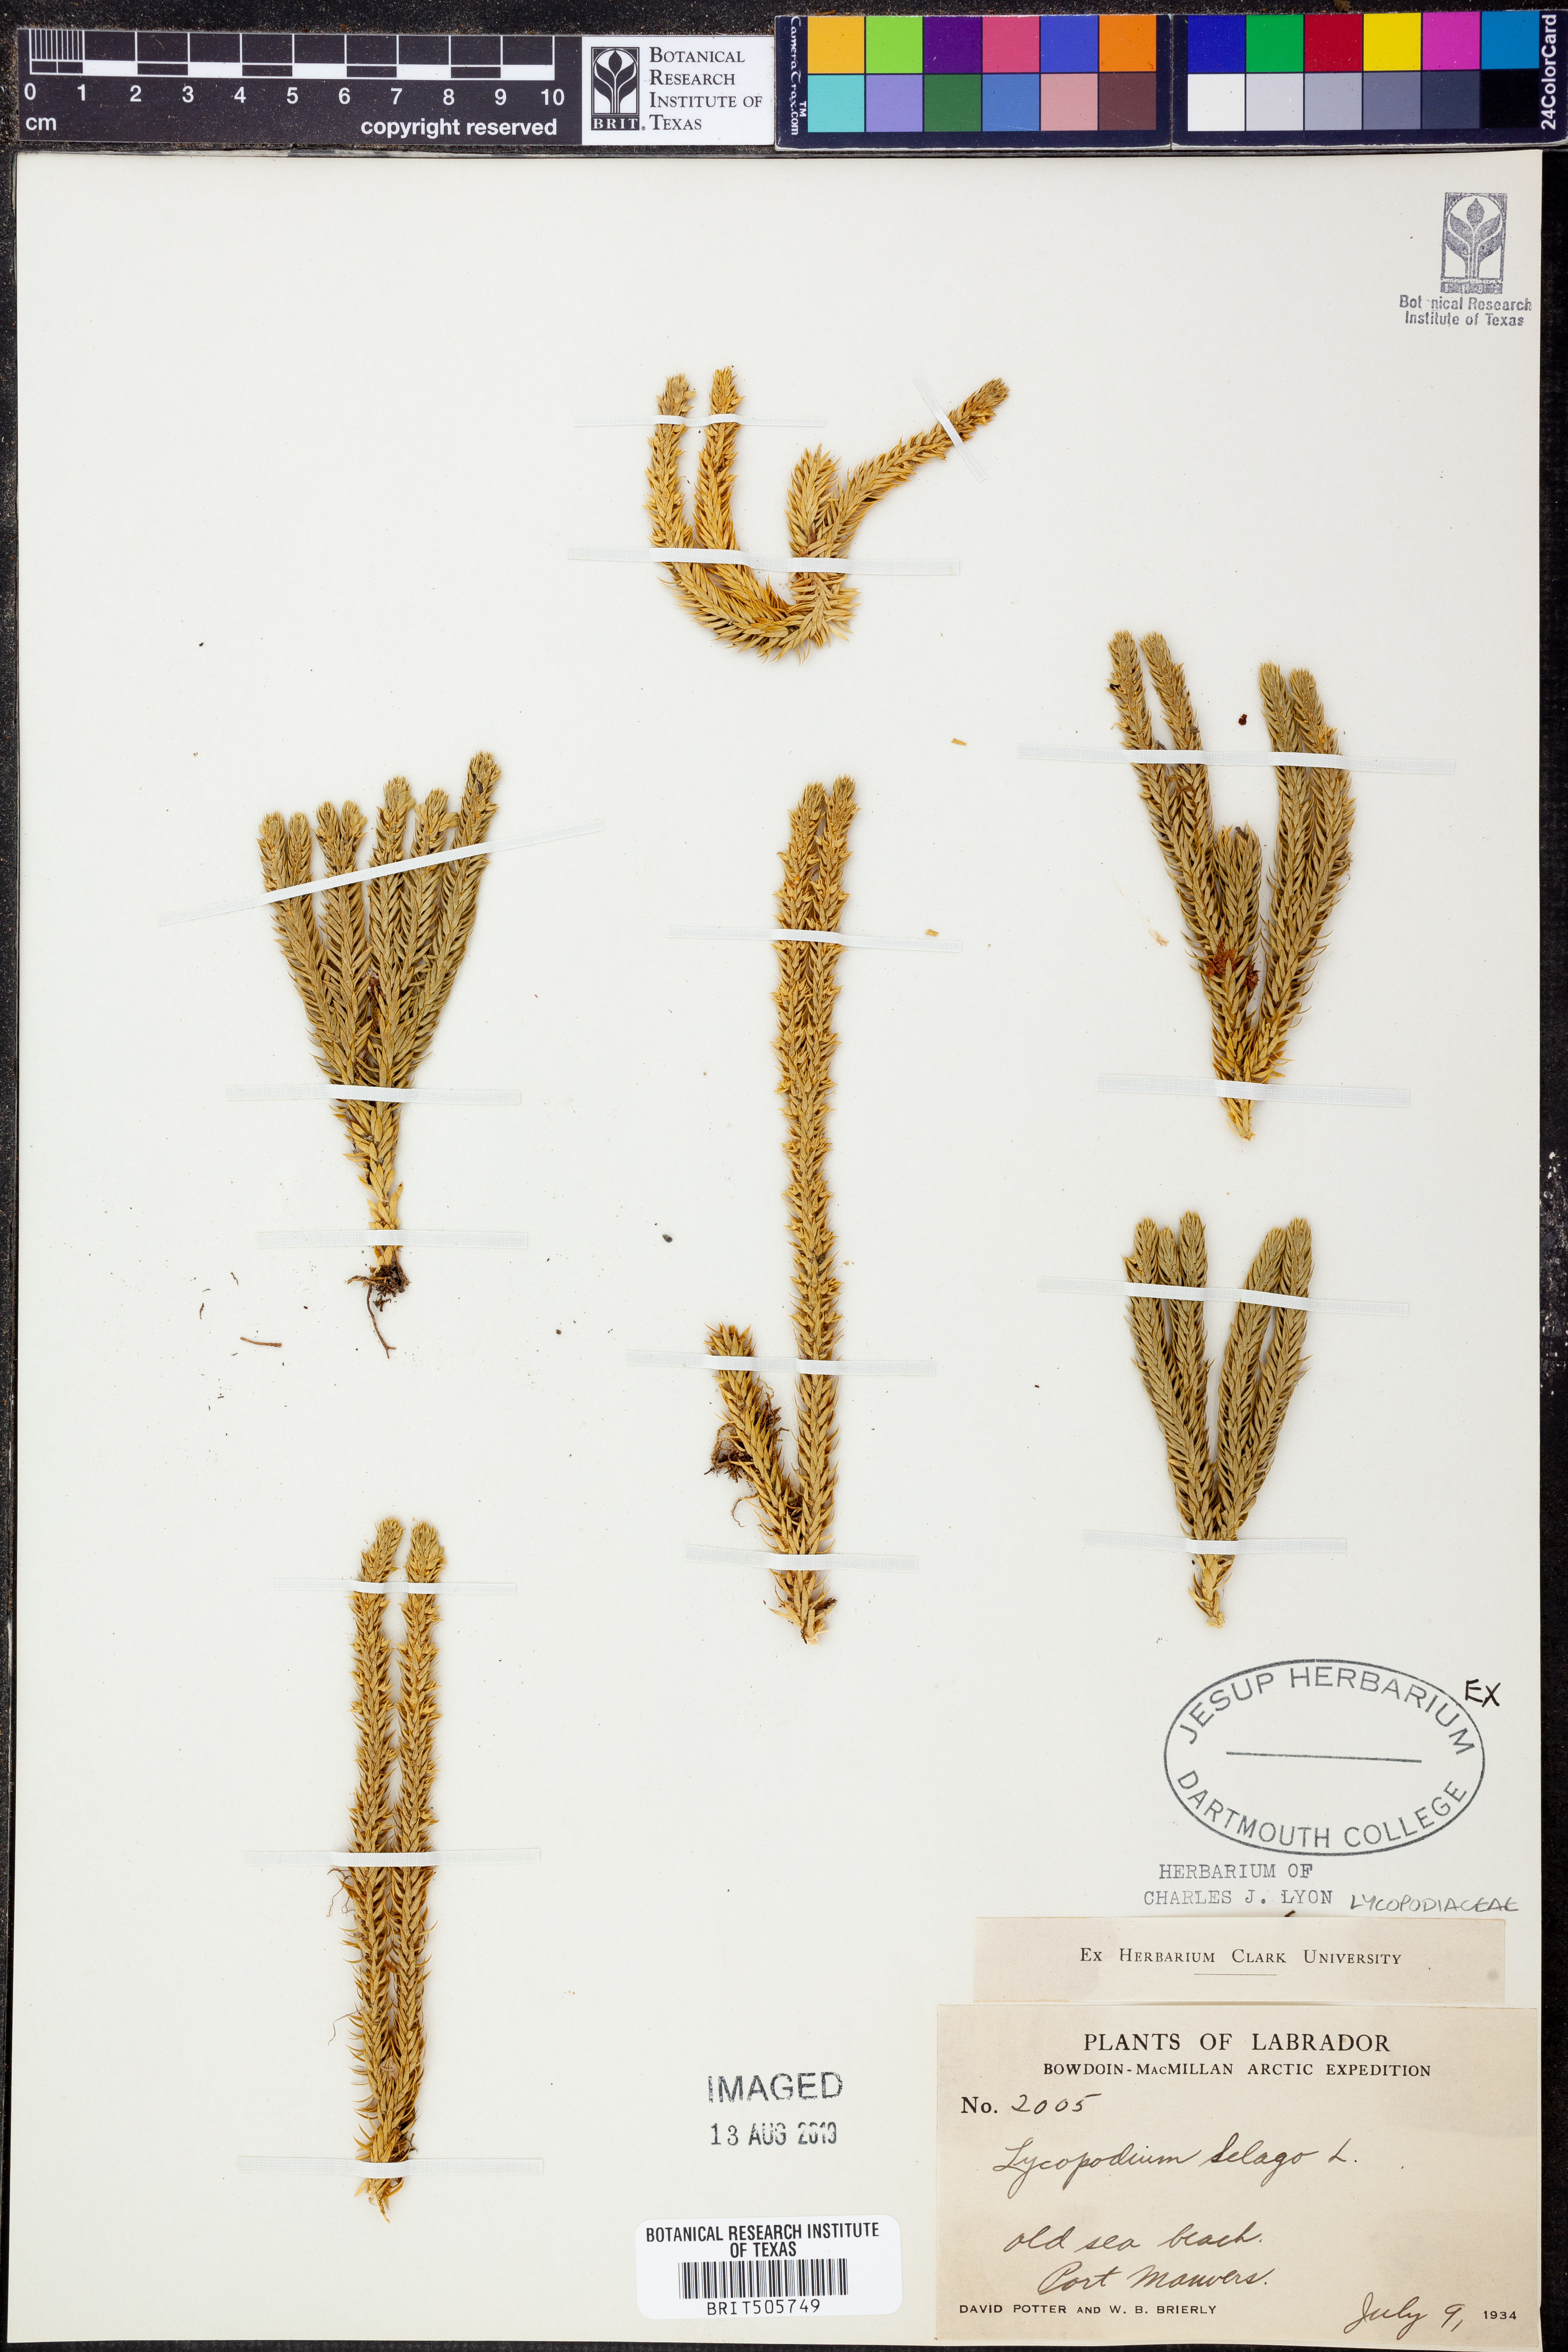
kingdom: Plantae
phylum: Tracheophyta
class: Lycopodiopsida
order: Lycopodiales
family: Lycopodiaceae
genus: Huperzia
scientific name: Huperzia selago
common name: Northern firmoss
